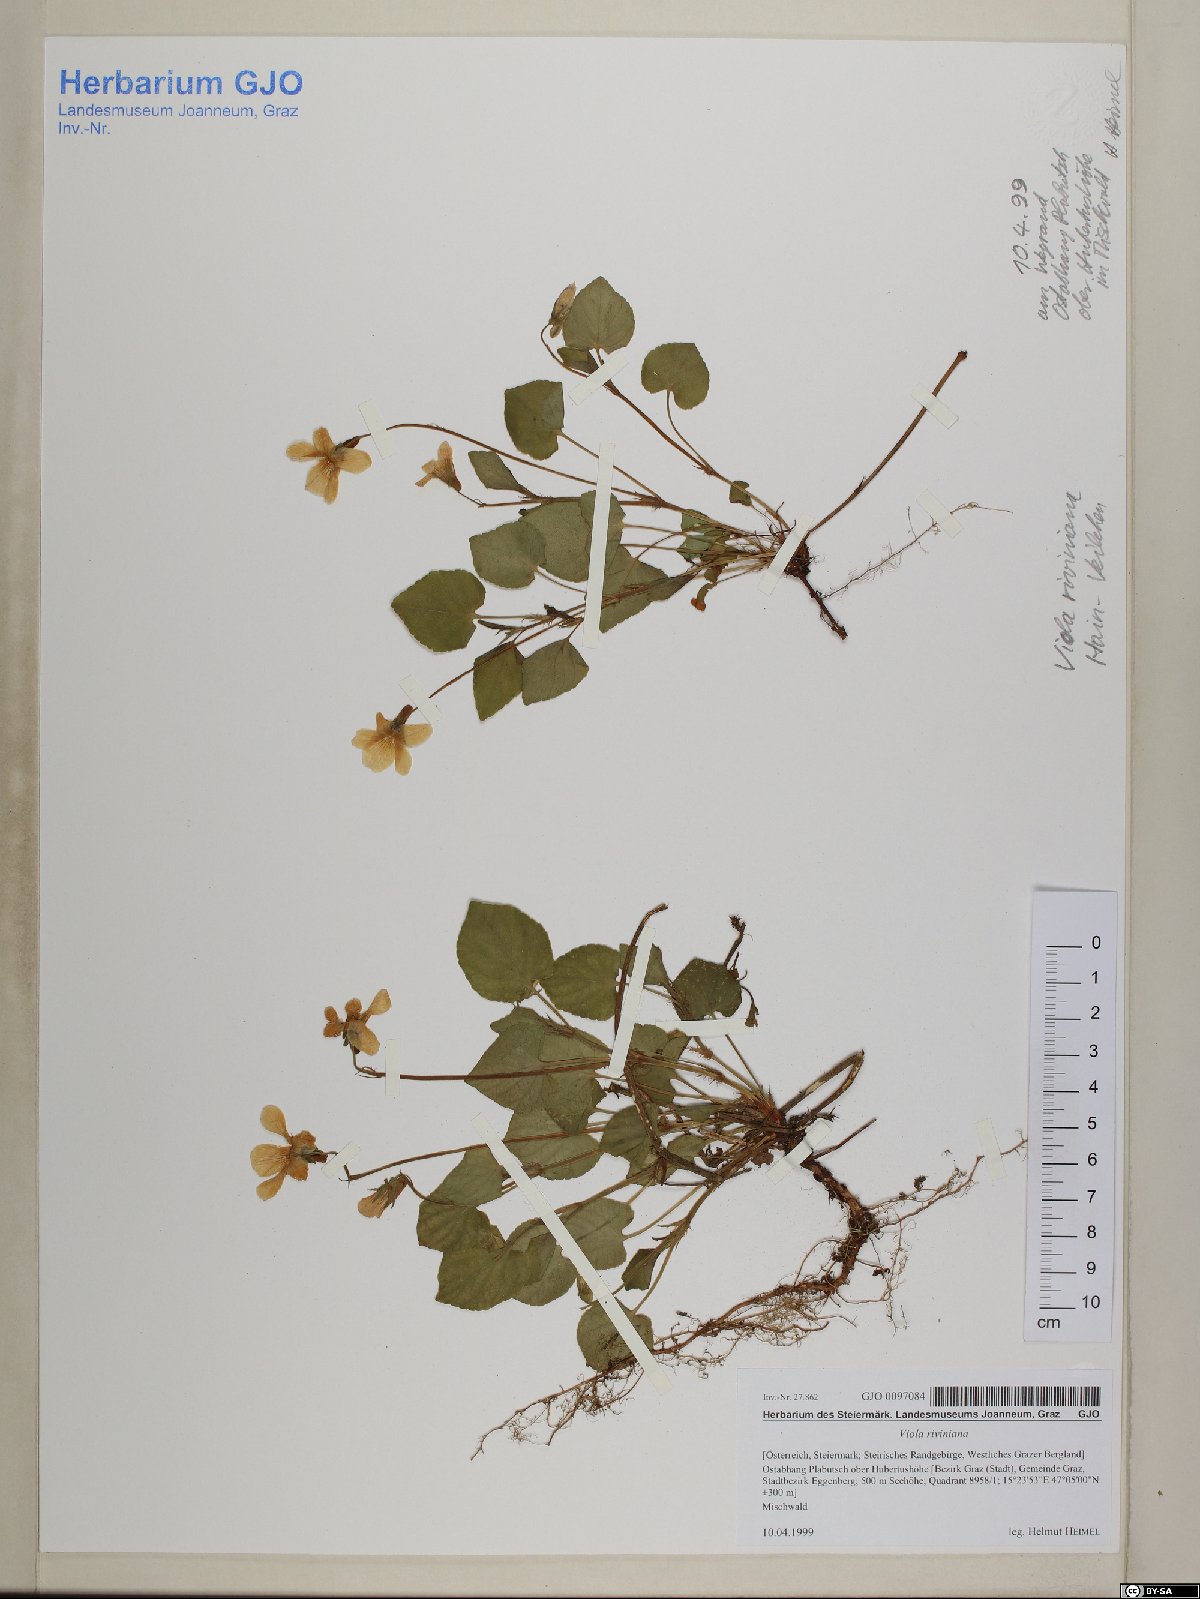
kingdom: Plantae
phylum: Tracheophyta
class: Magnoliopsida
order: Malpighiales
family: Violaceae
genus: Viola
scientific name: Viola riviniana
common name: Common dog-violet
